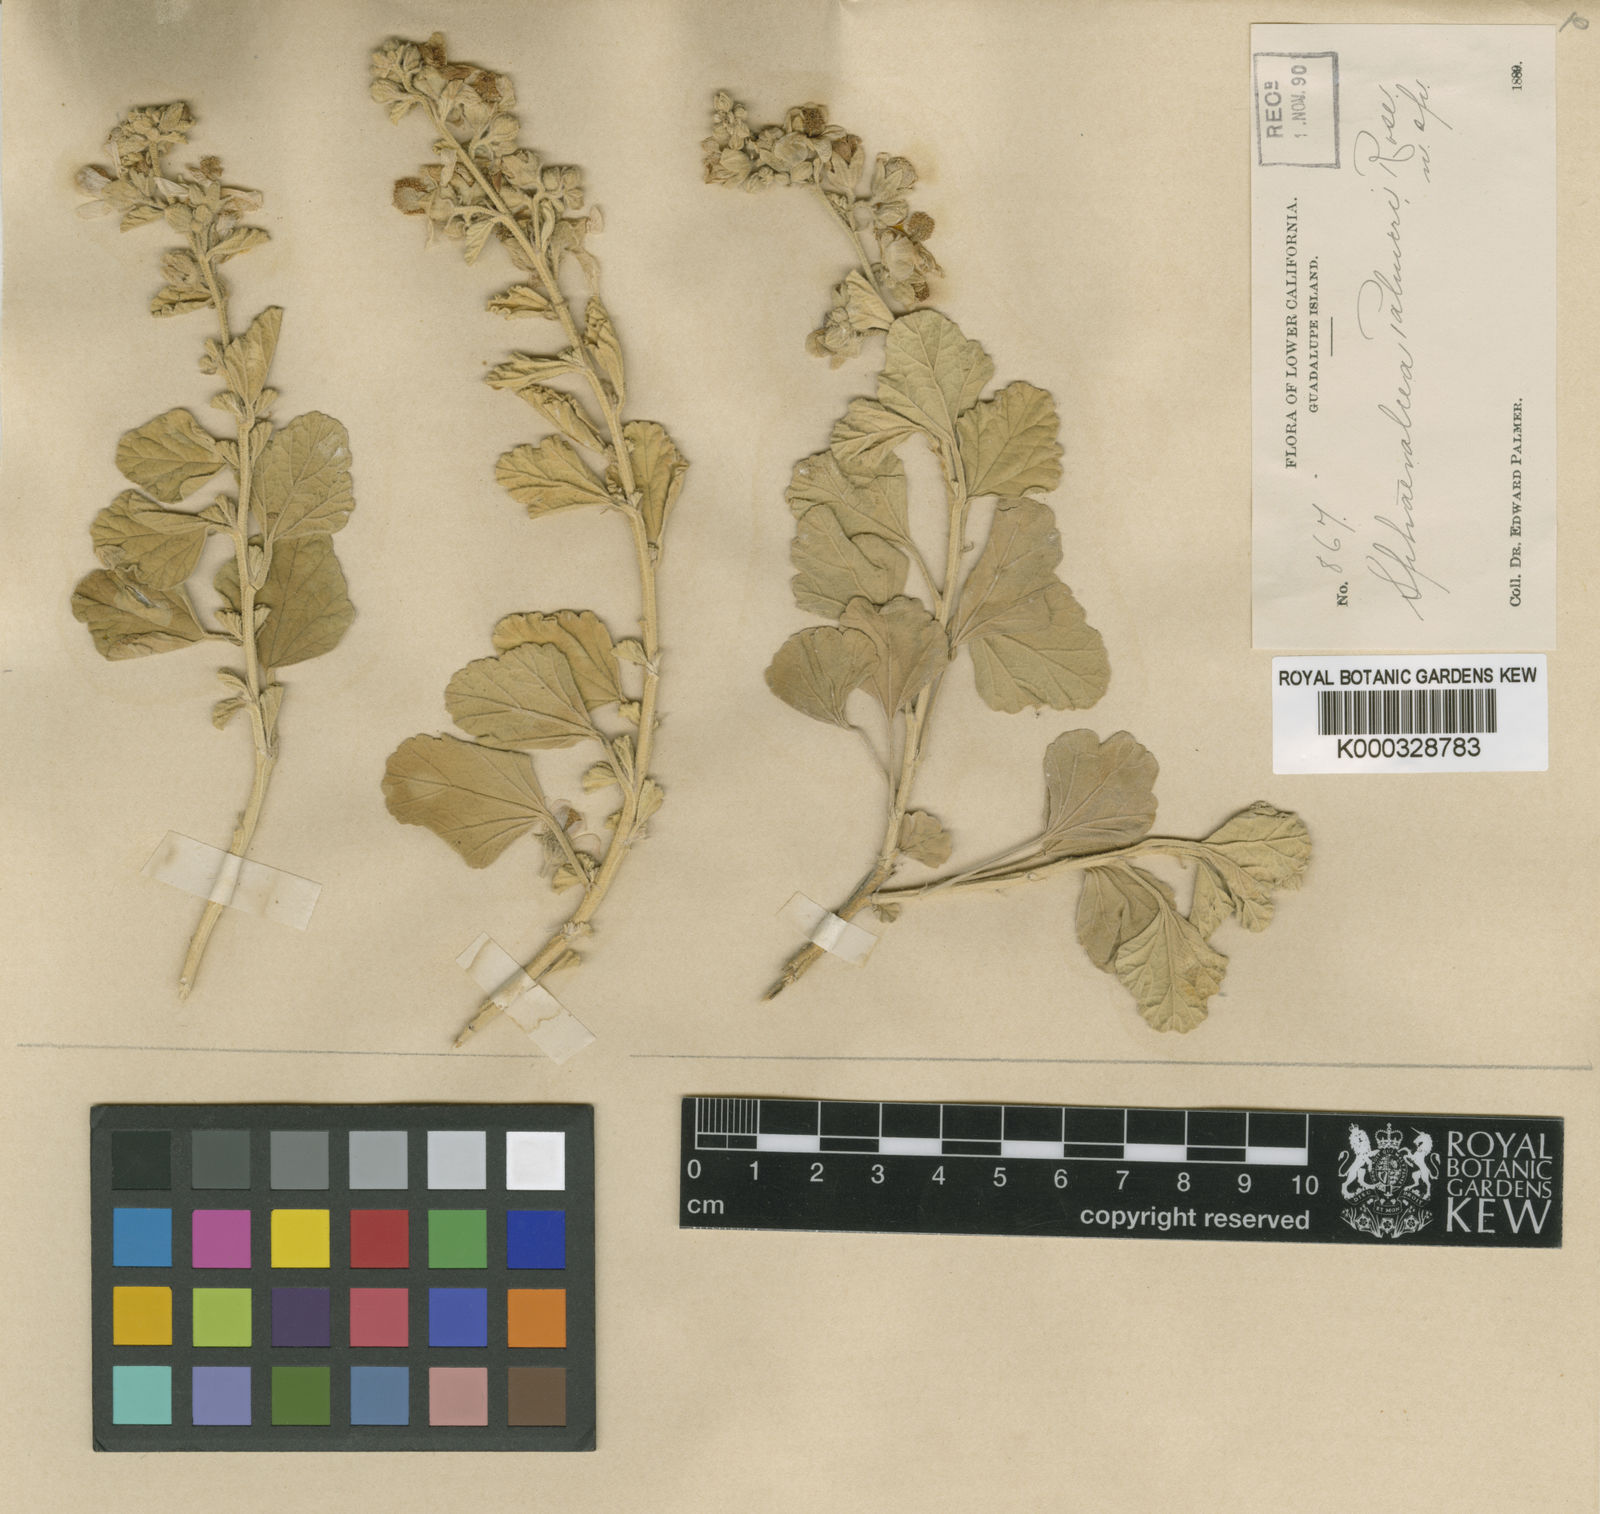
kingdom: Plantae
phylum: Tracheophyta
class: Magnoliopsida
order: Malvales
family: Malvaceae
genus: Sphaeralcea
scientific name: Sphaeralcea palmeri
